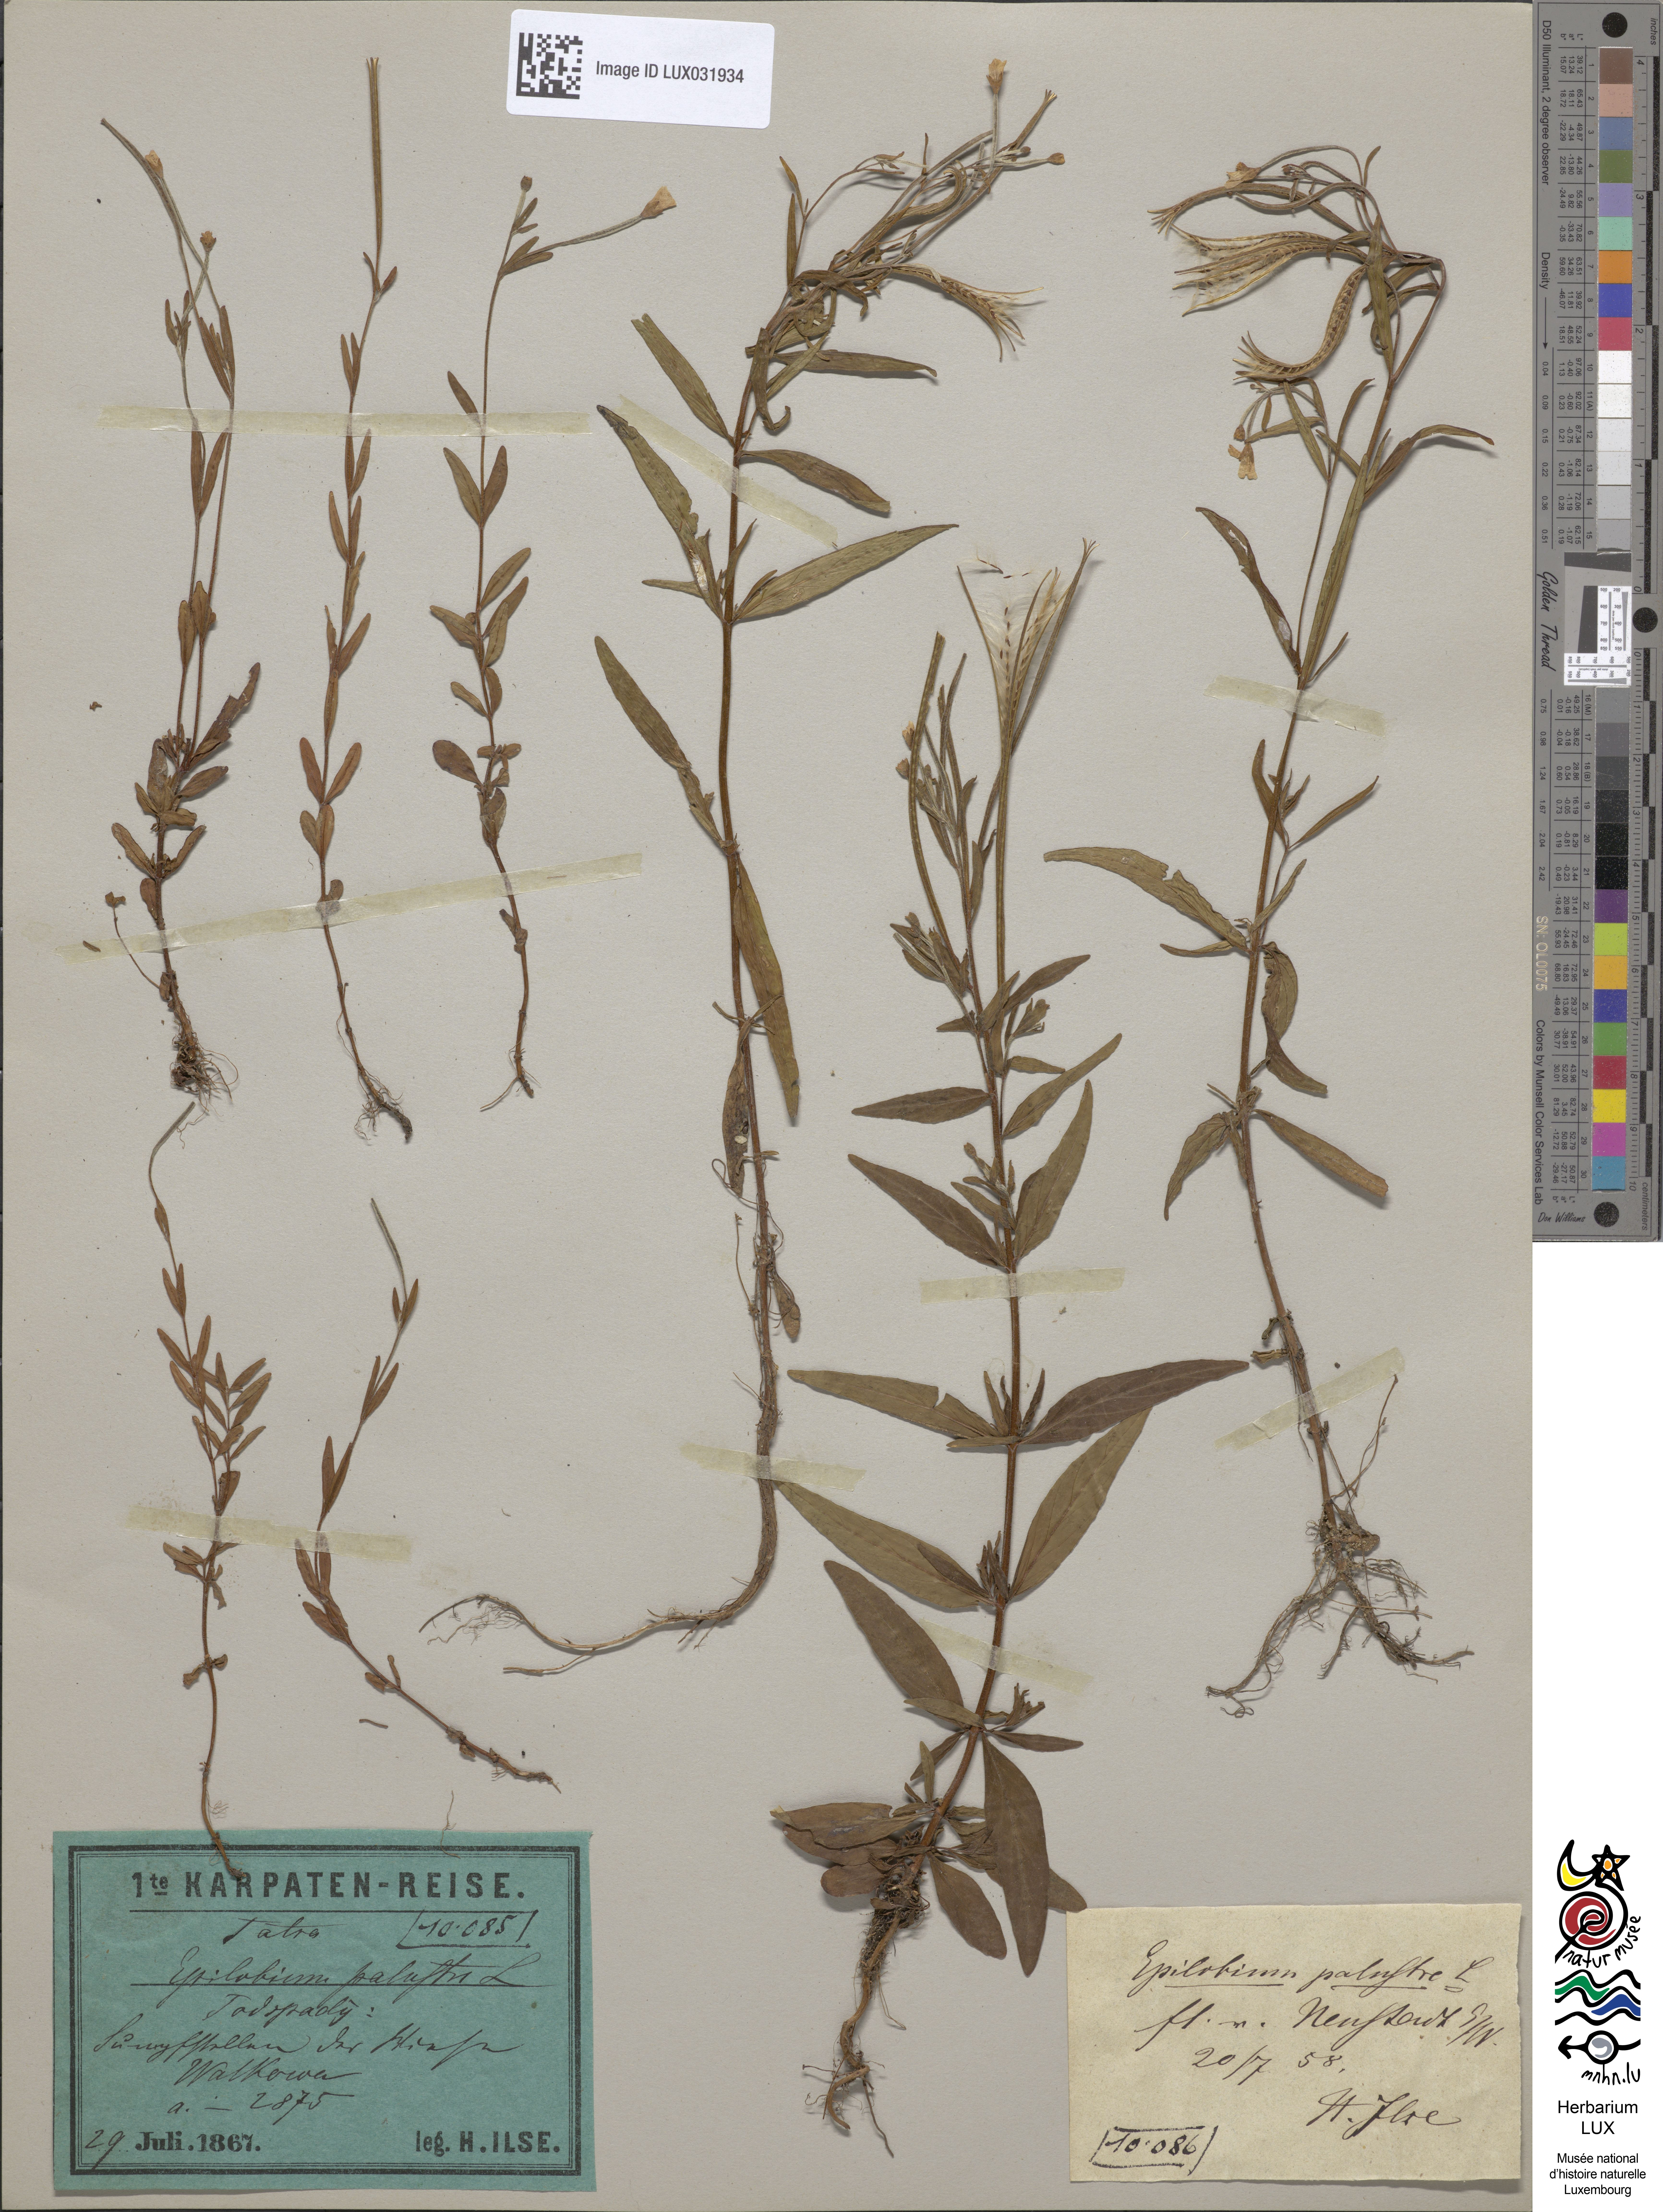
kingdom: Plantae
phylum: Tracheophyta
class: Magnoliopsida
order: Myrtales
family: Onagraceae
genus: Epilobium
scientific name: Epilobium palustre
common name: Marsh willowherb
